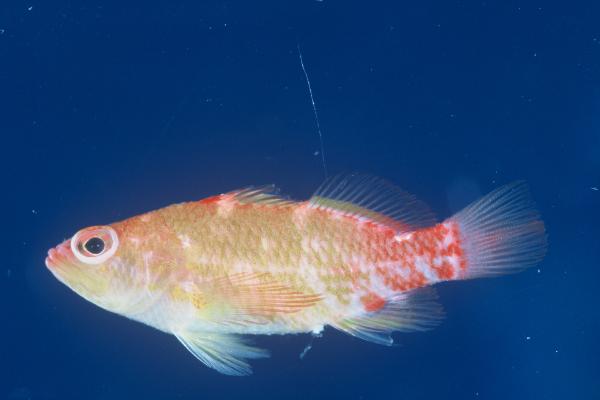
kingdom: Animalia
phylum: Chordata
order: Perciformes
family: Serranidae
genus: Plectranthias
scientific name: Plectranthias winniensis
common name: Redblotch perchlet
